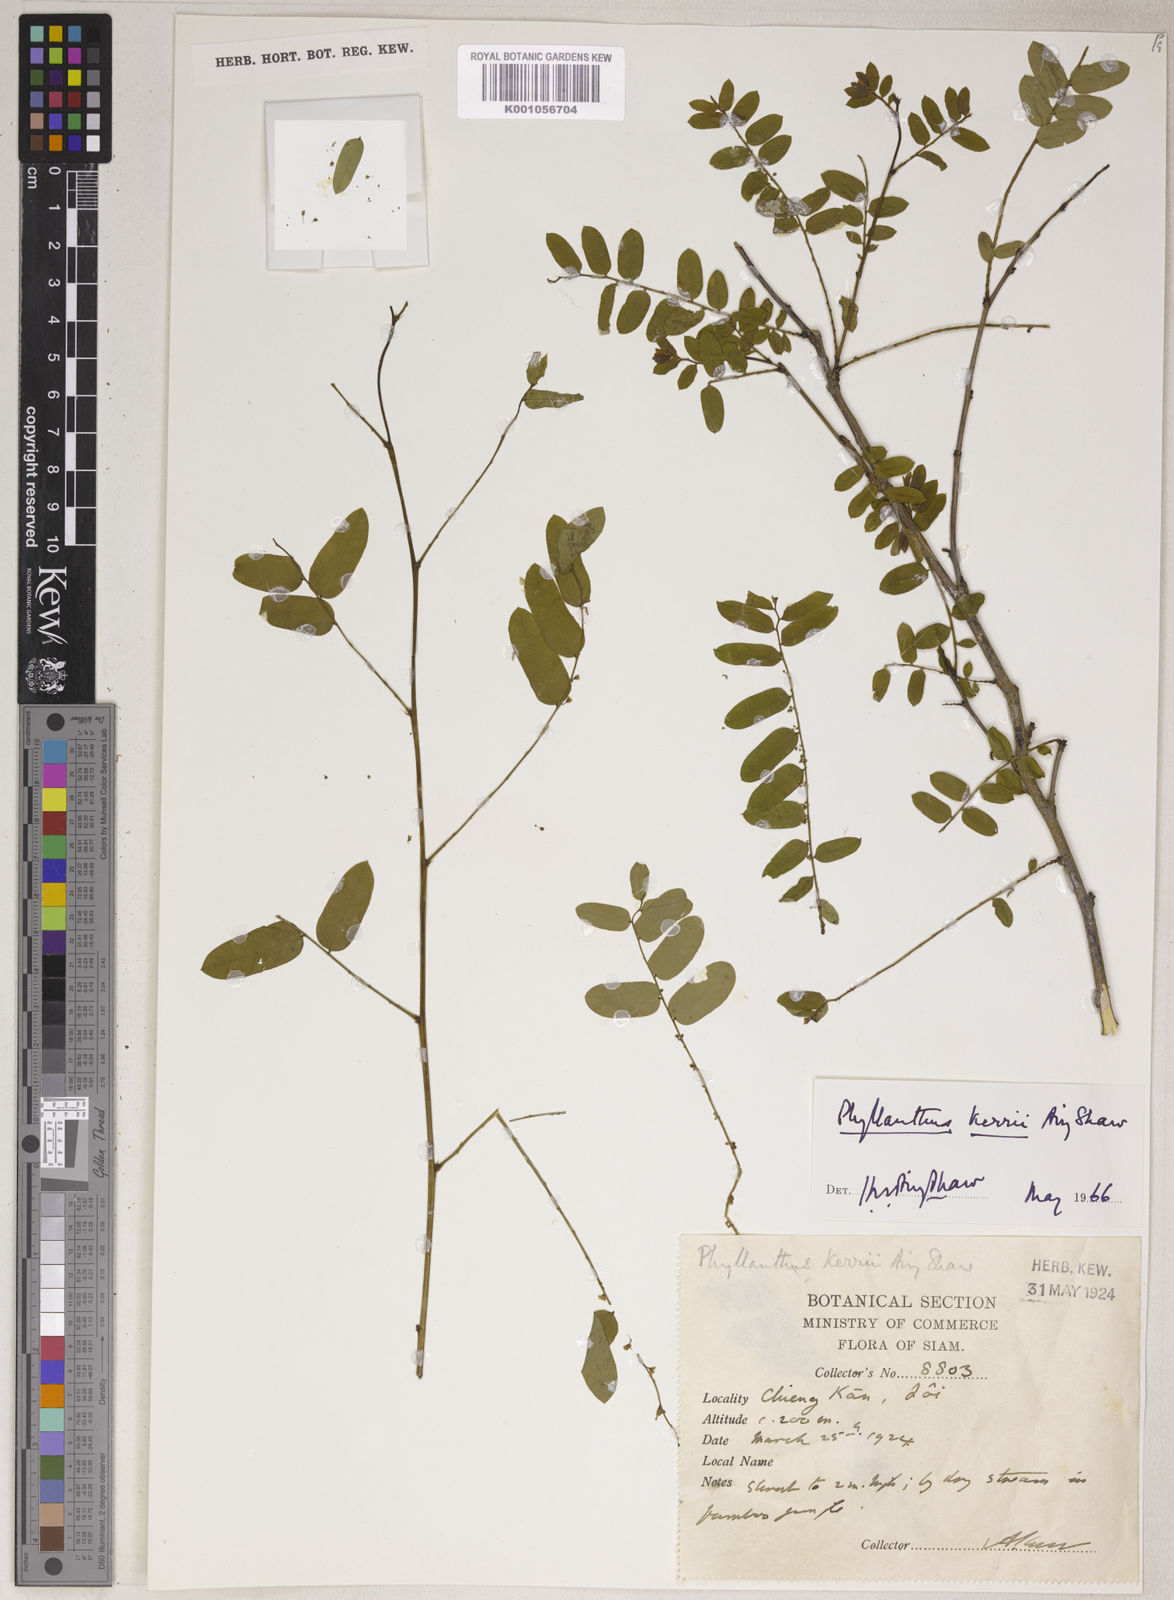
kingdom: Plantae
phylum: Tracheophyta
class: Magnoliopsida
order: Malpighiales
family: Phyllanthaceae
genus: Phyllanthus
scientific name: Phyllanthus kerrii
